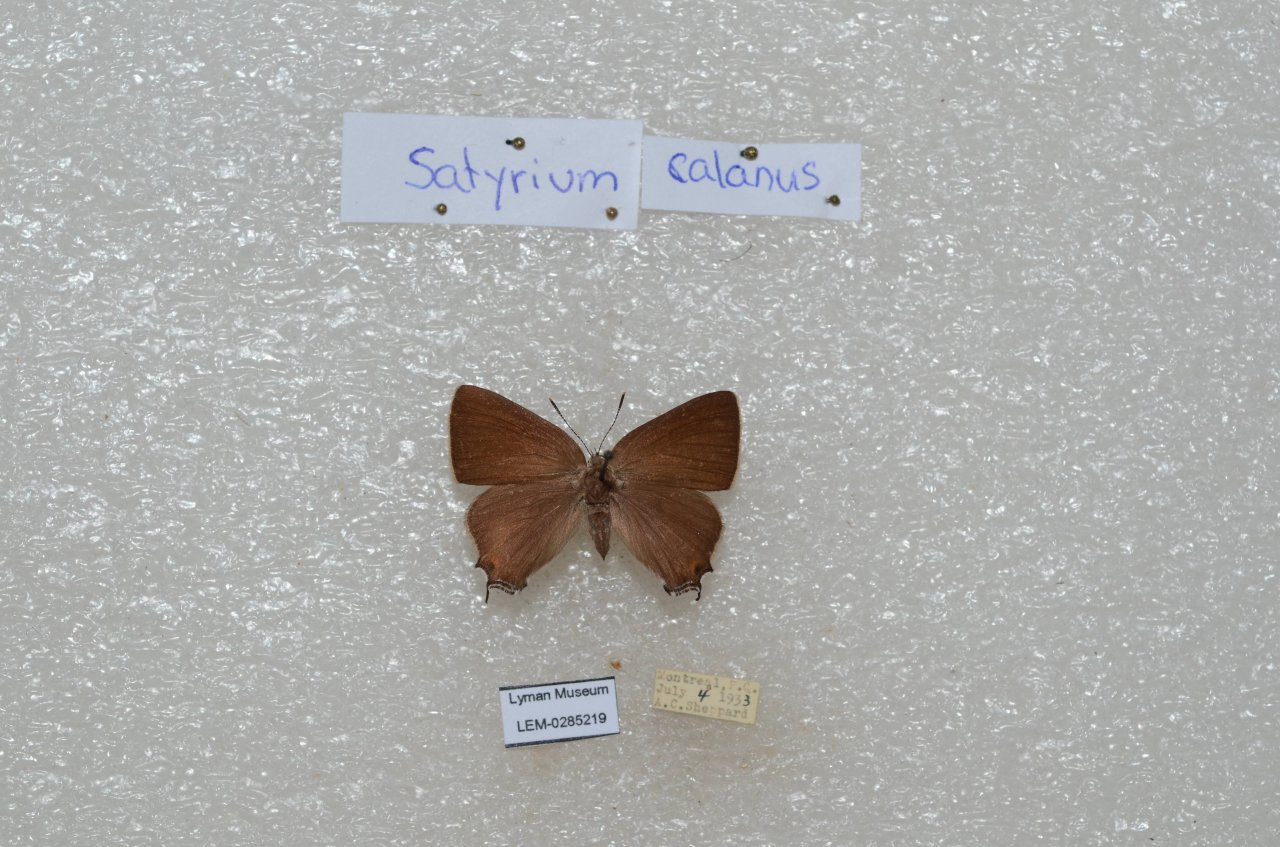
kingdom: Animalia
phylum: Arthropoda
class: Insecta
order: Lepidoptera
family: Lycaenidae
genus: Satyrium
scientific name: Satyrium calanus
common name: Banded Hairstreak
